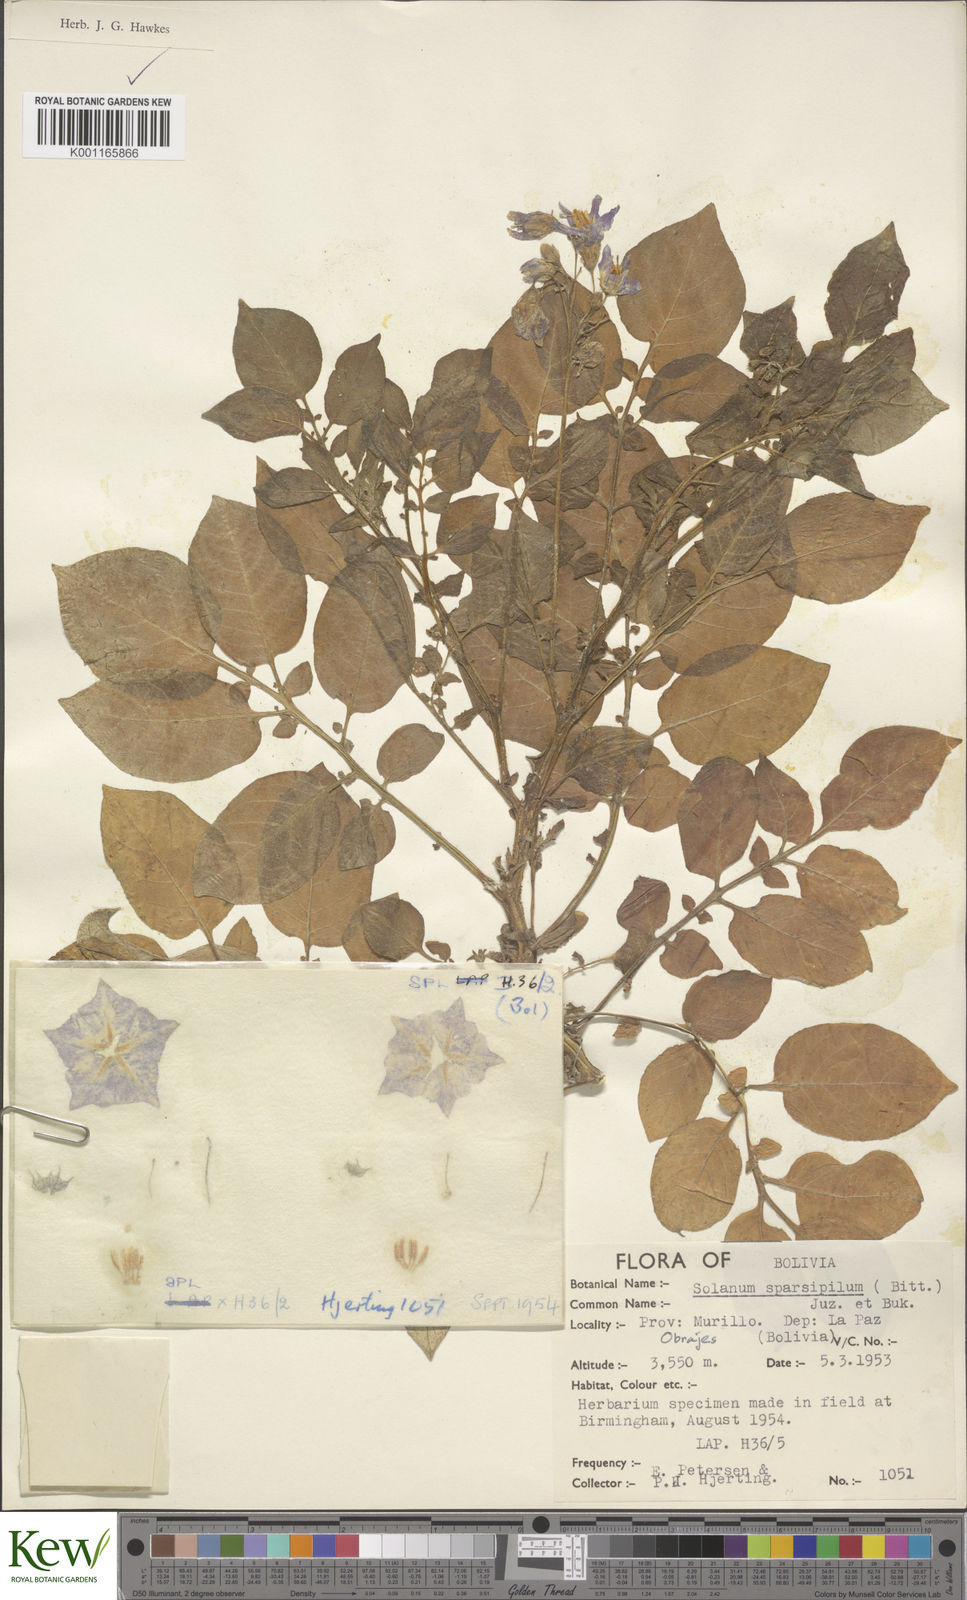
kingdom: Plantae
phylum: Tracheophyta
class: Magnoliopsida
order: Solanales
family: Solanaceae
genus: Solanum
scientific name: Solanum brevicaule
